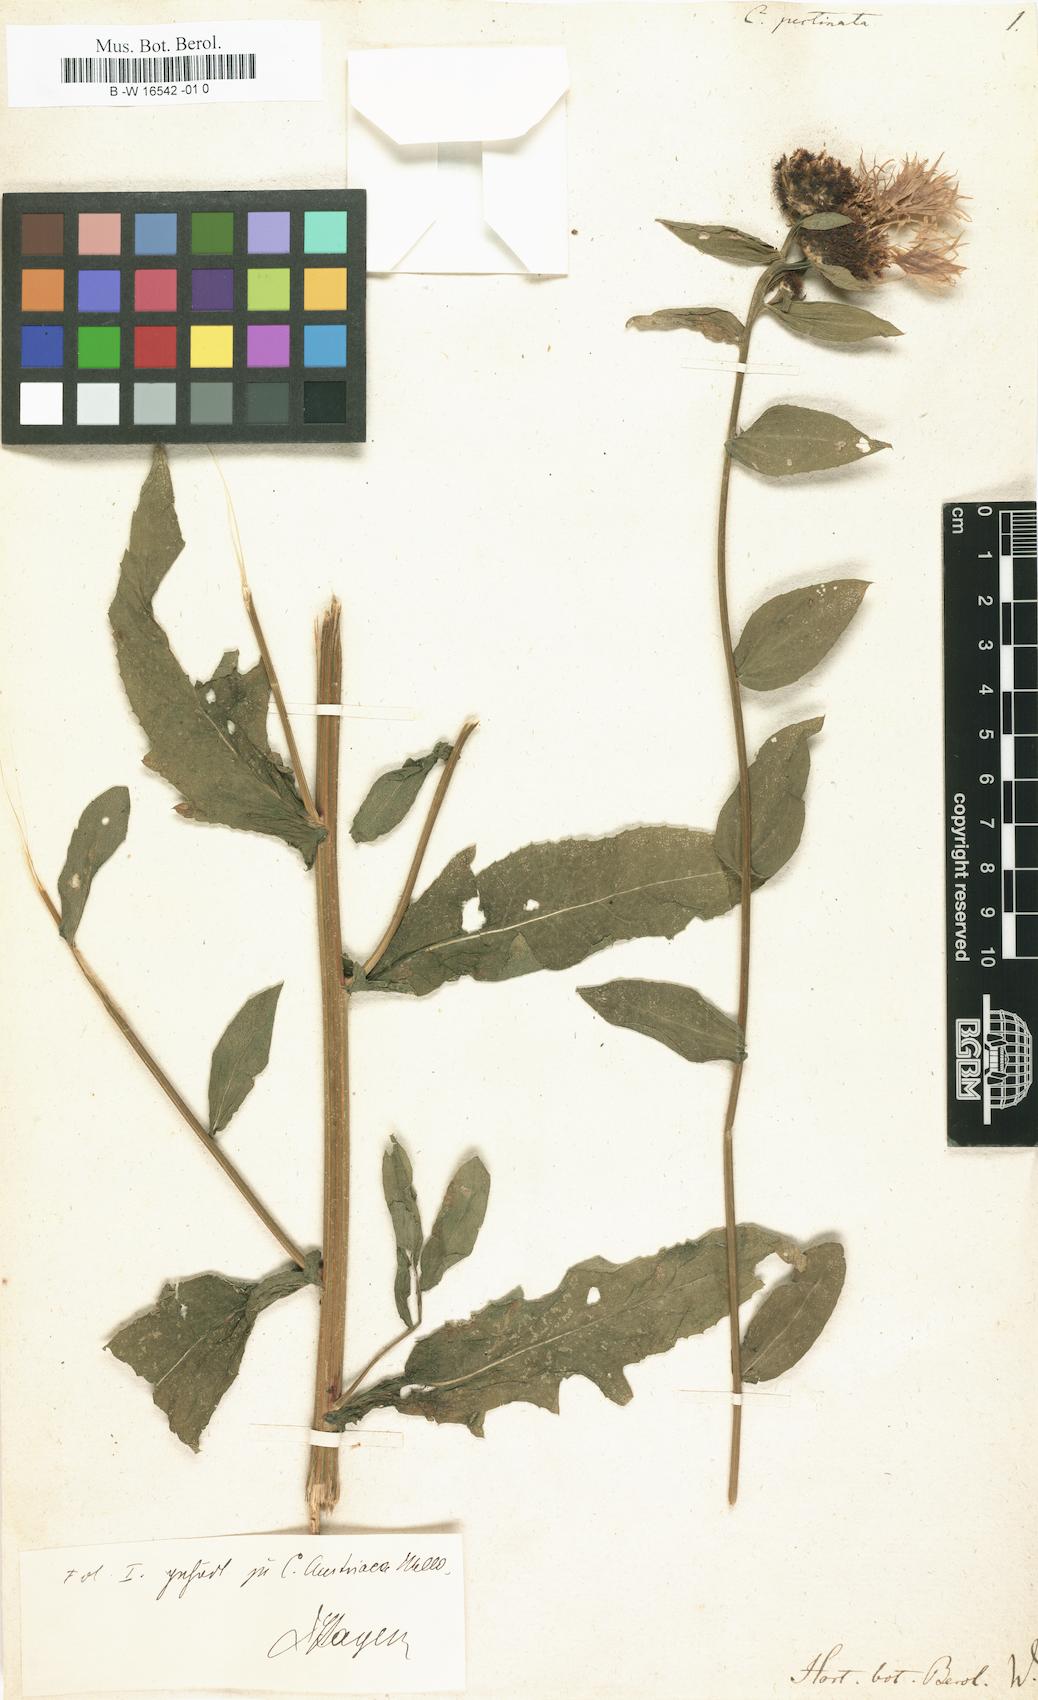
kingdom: Plantae
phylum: Tracheophyta
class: Magnoliopsida
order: Asterales
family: Asteraceae
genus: Centaurea
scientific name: Centaurea pectinata
